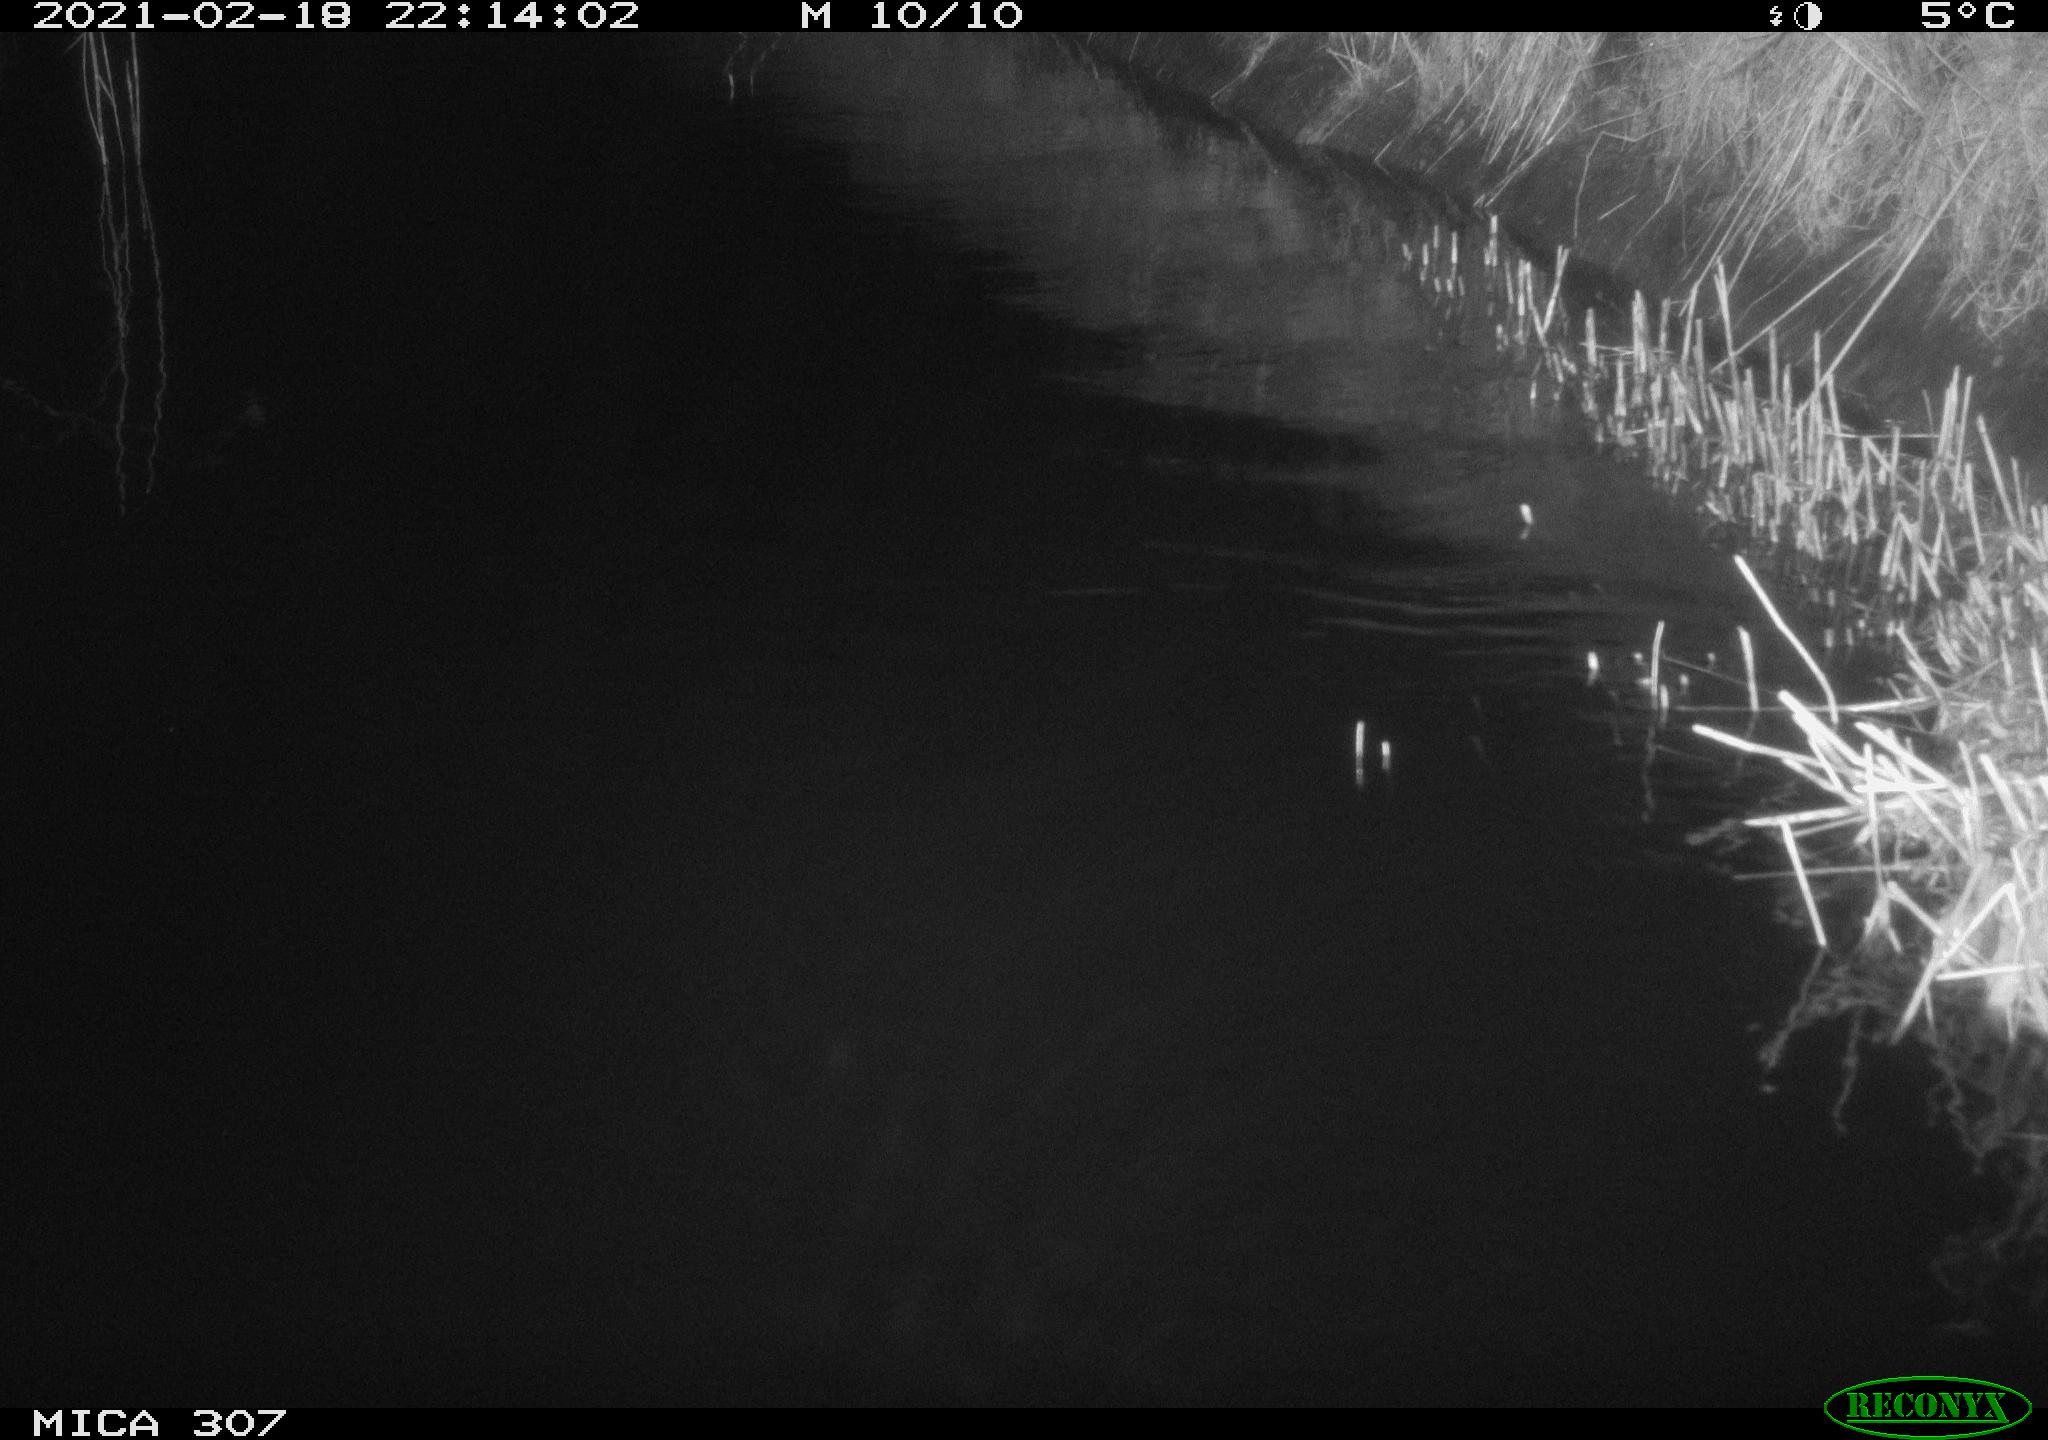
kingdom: Animalia
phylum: Chordata
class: Mammalia
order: Rodentia
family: Muridae
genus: Rattus
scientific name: Rattus norvegicus
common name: Brown rat
